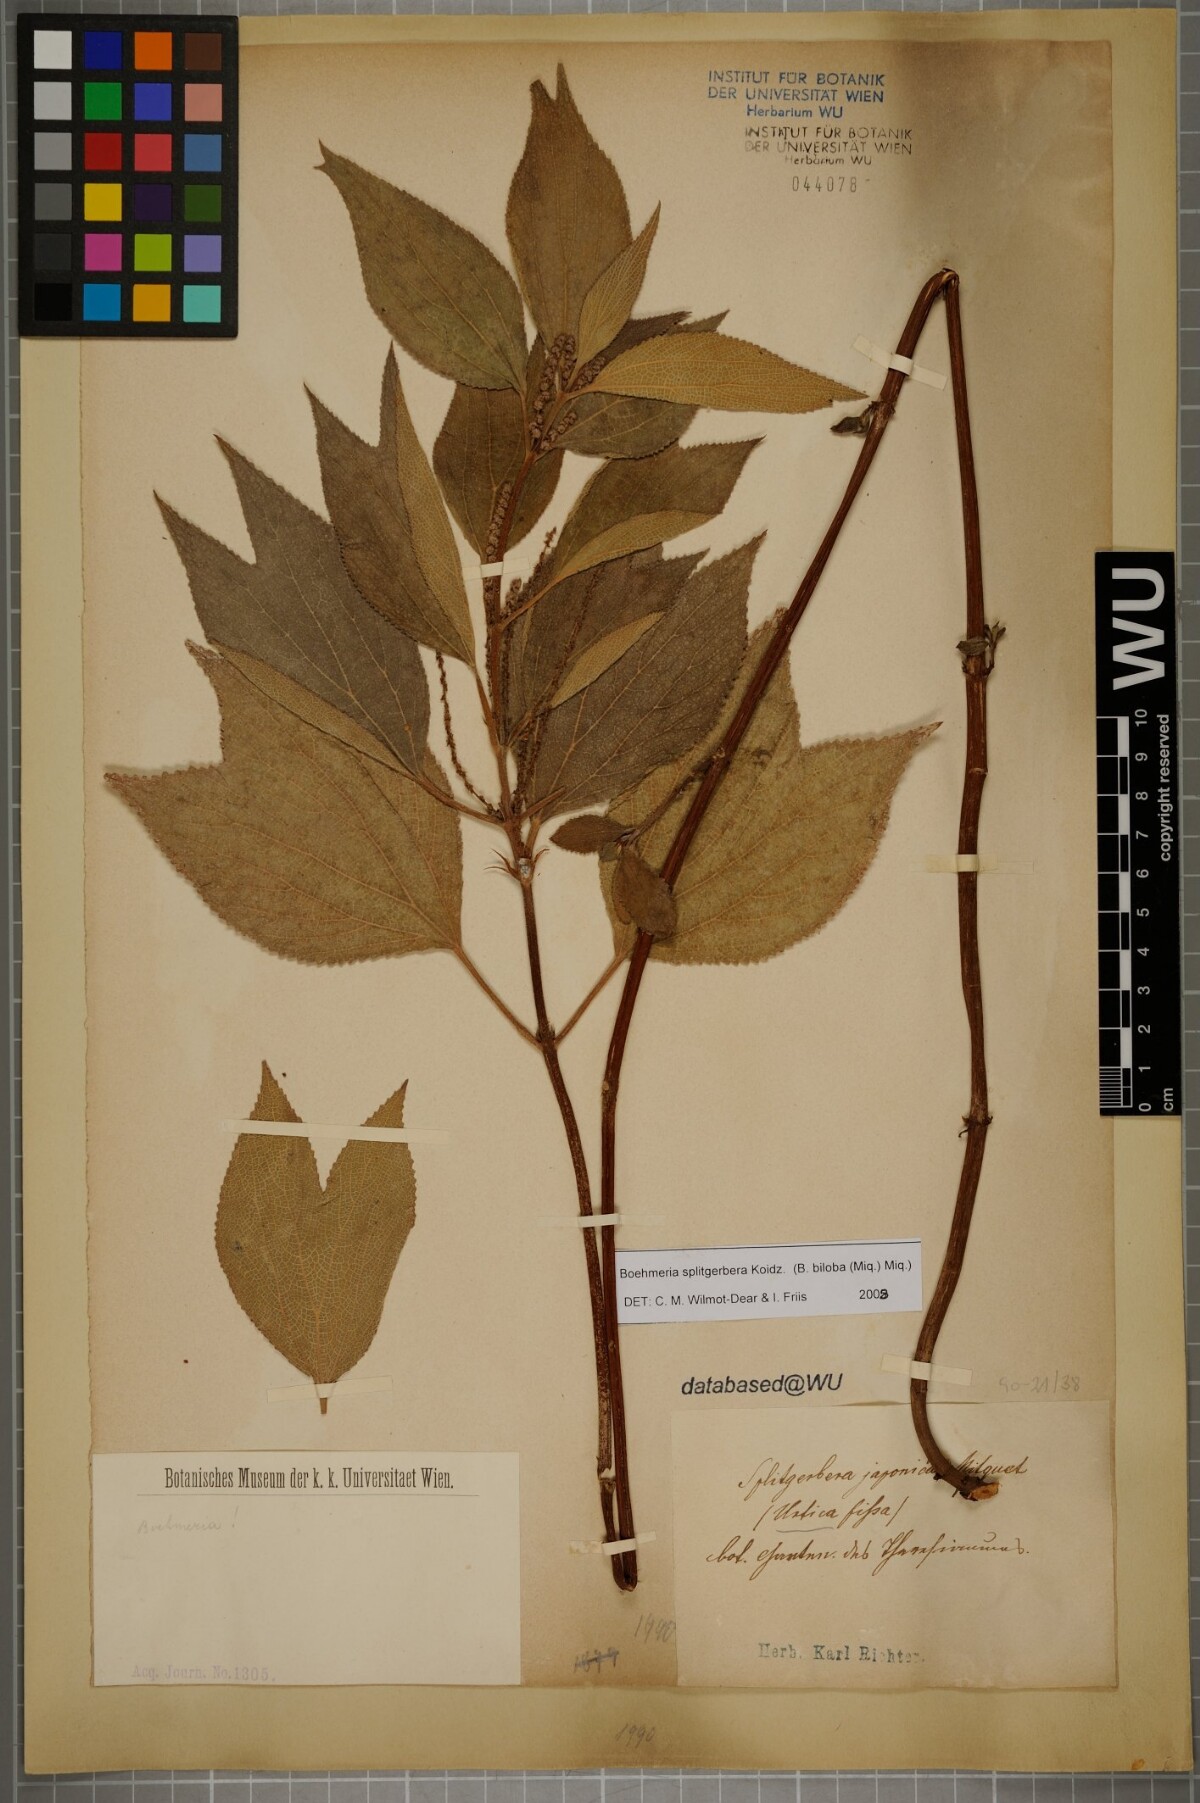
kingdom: Plantae
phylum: Tracheophyta
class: Magnoliopsida
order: Rosales
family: Urticaceae
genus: Boehmeria
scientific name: Boehmeria splitgerbera
